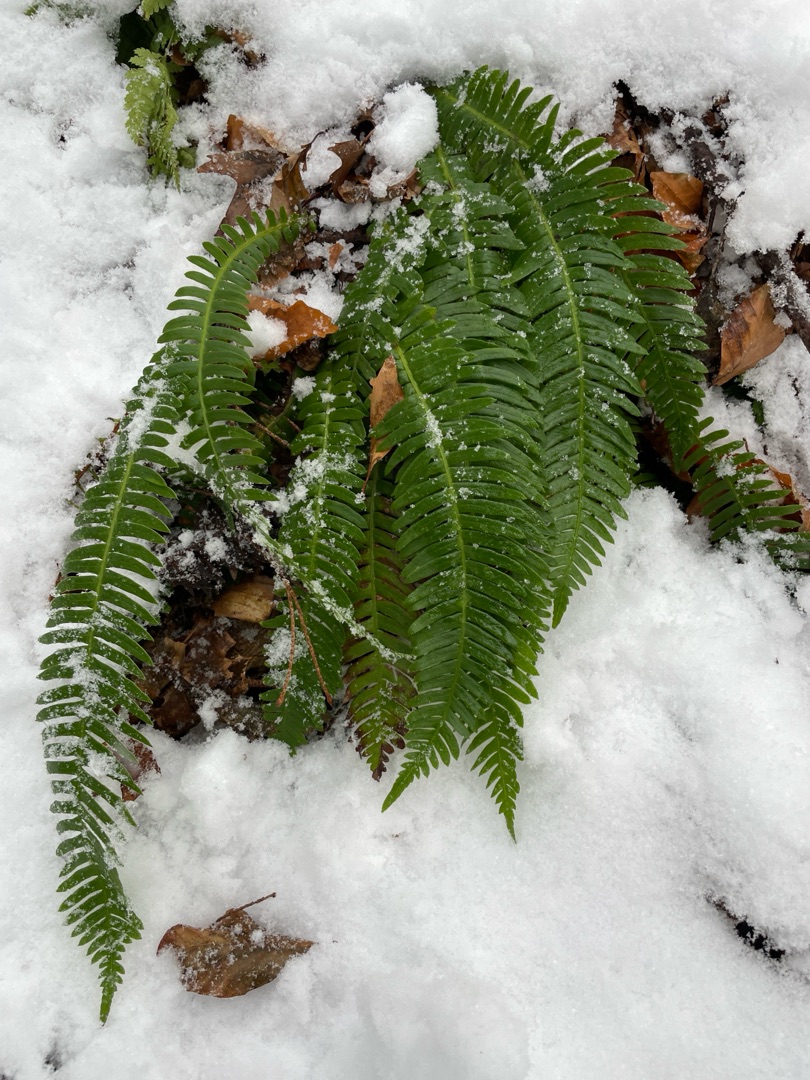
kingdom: Plantae
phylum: Tracheophyta
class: Polypodiopsida
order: Polypodiales
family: Blechnaceae
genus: Struthiopteris
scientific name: Struthiopteris spicant
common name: Kambregne
